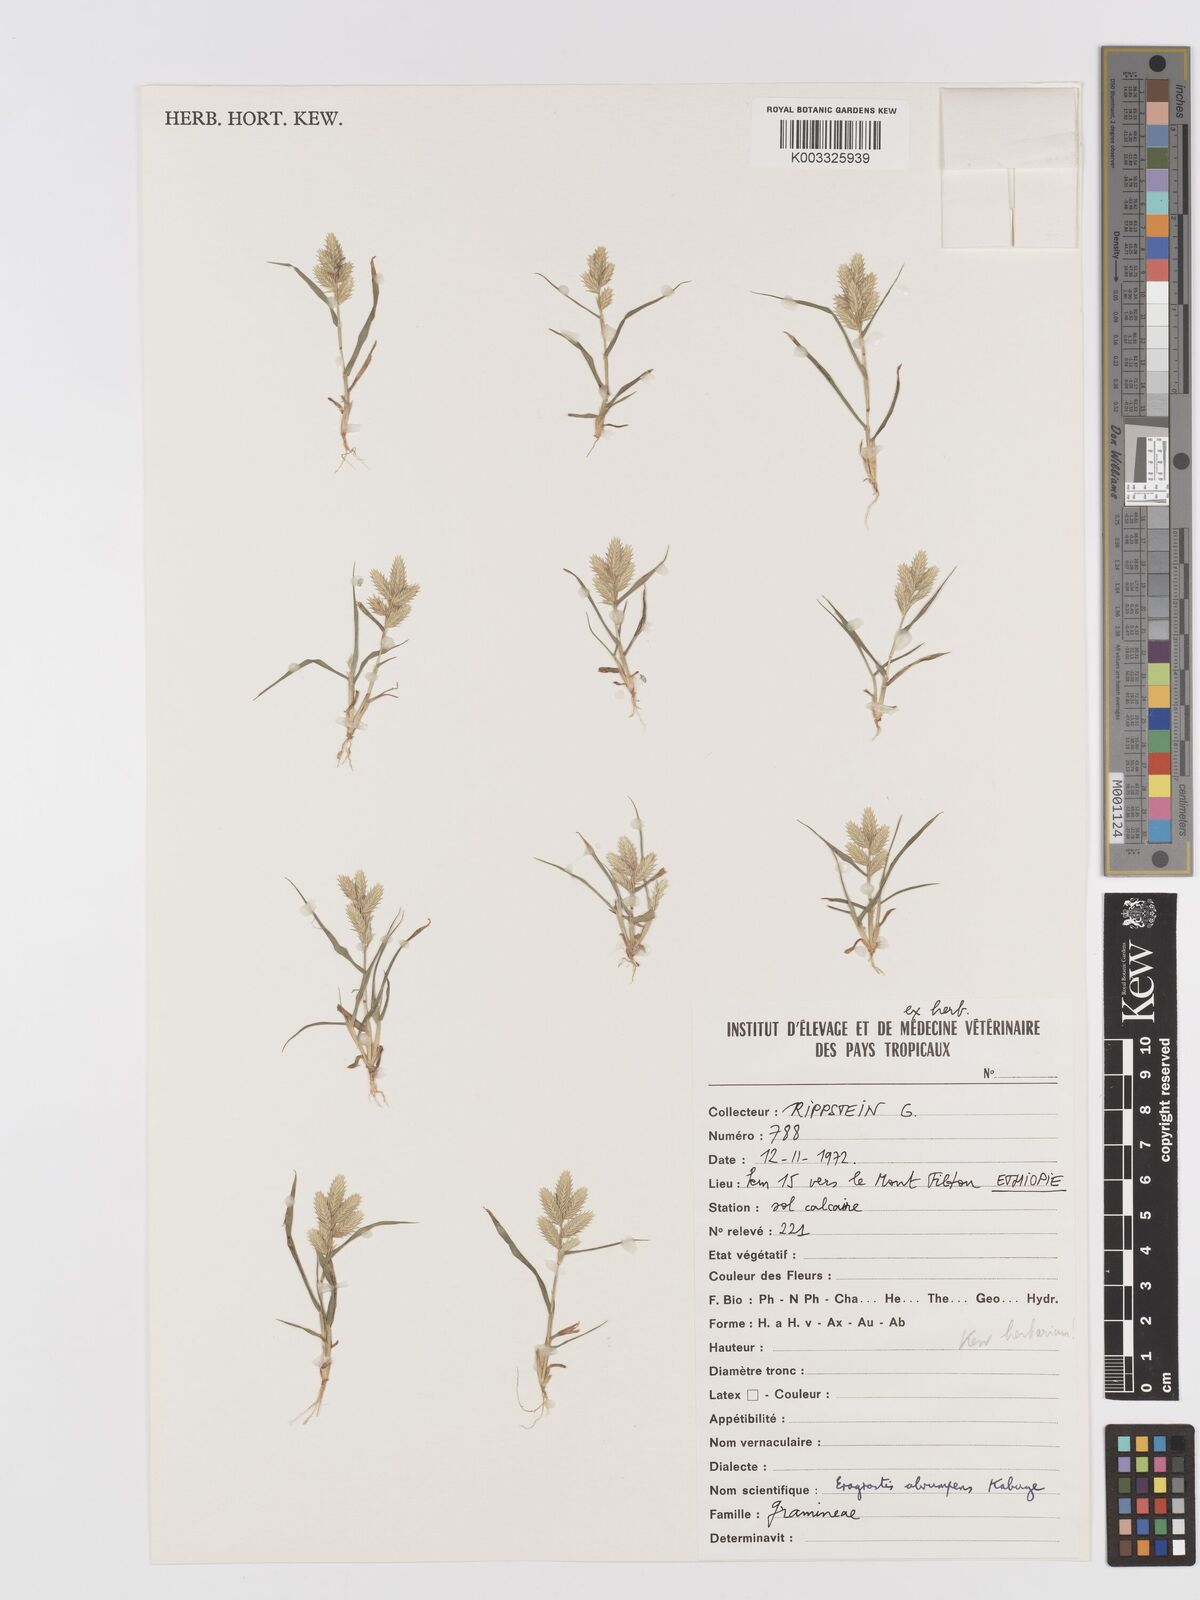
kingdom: Plantae
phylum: Tracheophyta
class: Liliopsida
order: Poales
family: Poaceae
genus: Eragrostis
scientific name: Eragrostis sennii
